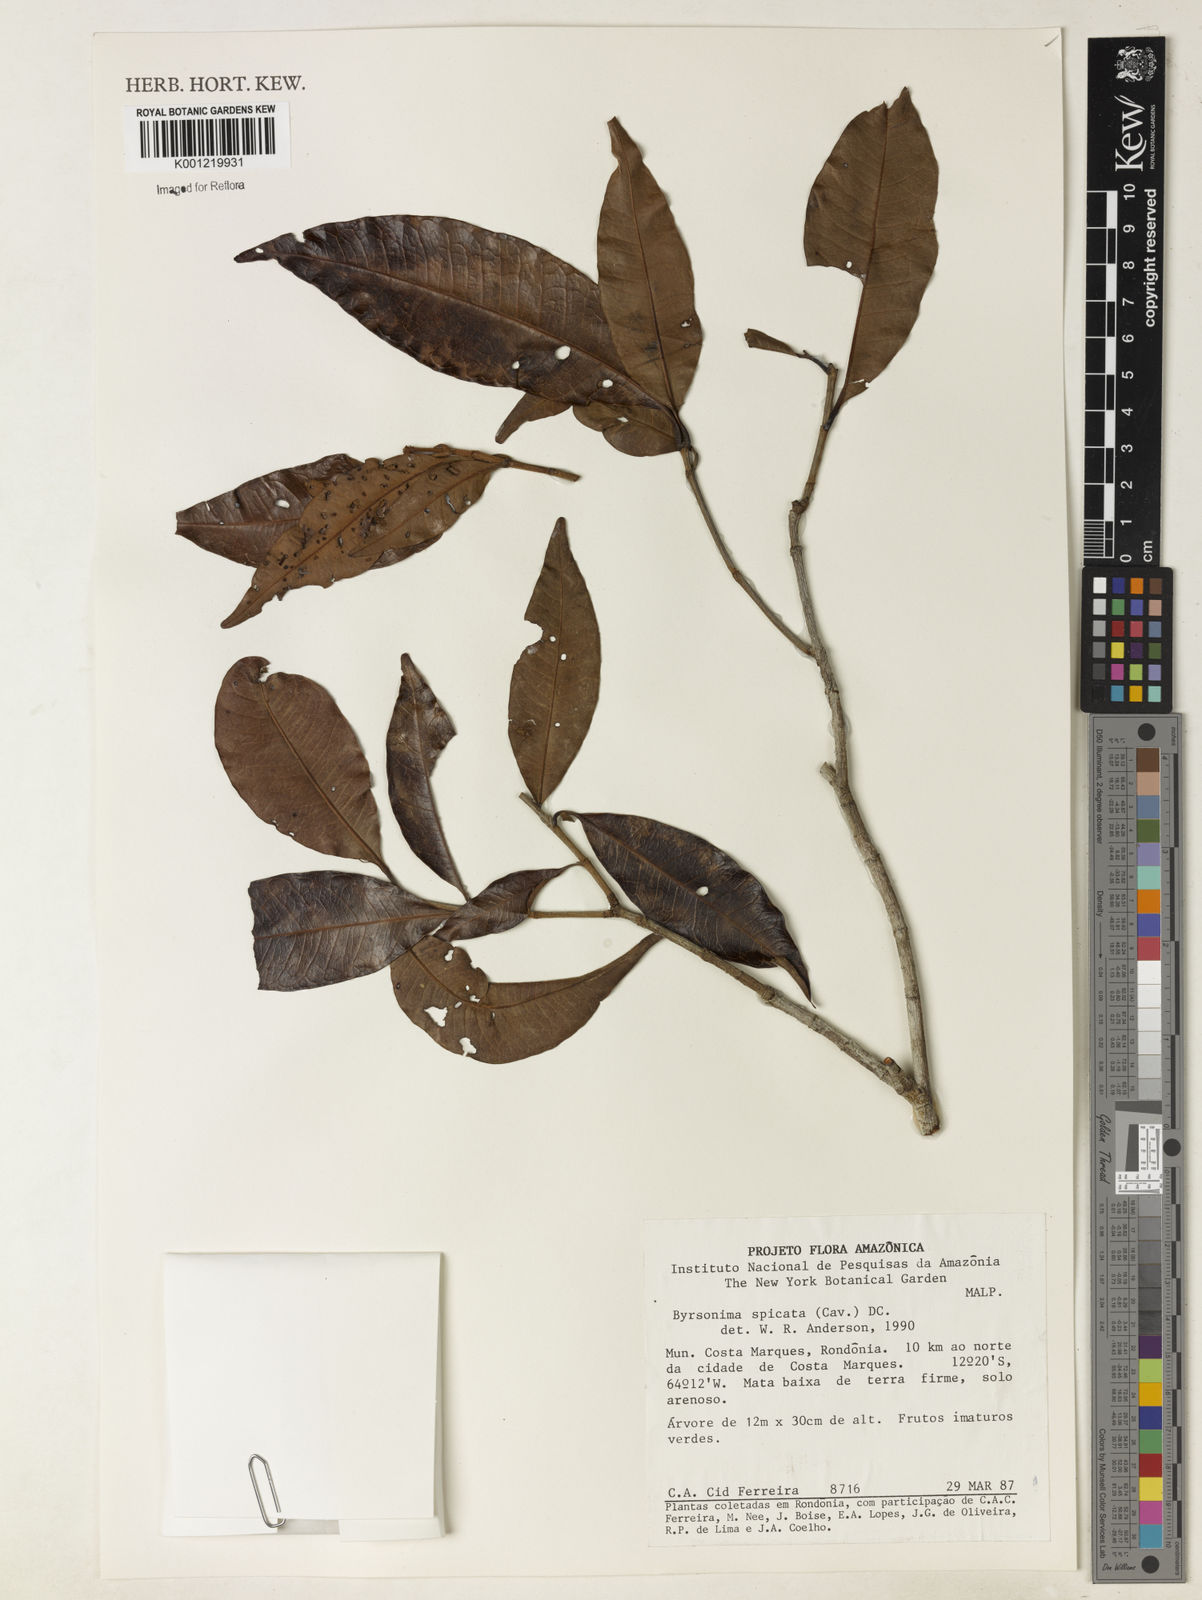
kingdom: Plantae
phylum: Tracheophyta
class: Magnoliopsida
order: Malpighiales
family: Malpighiaceae
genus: Byrsonima
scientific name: Byrsonima
